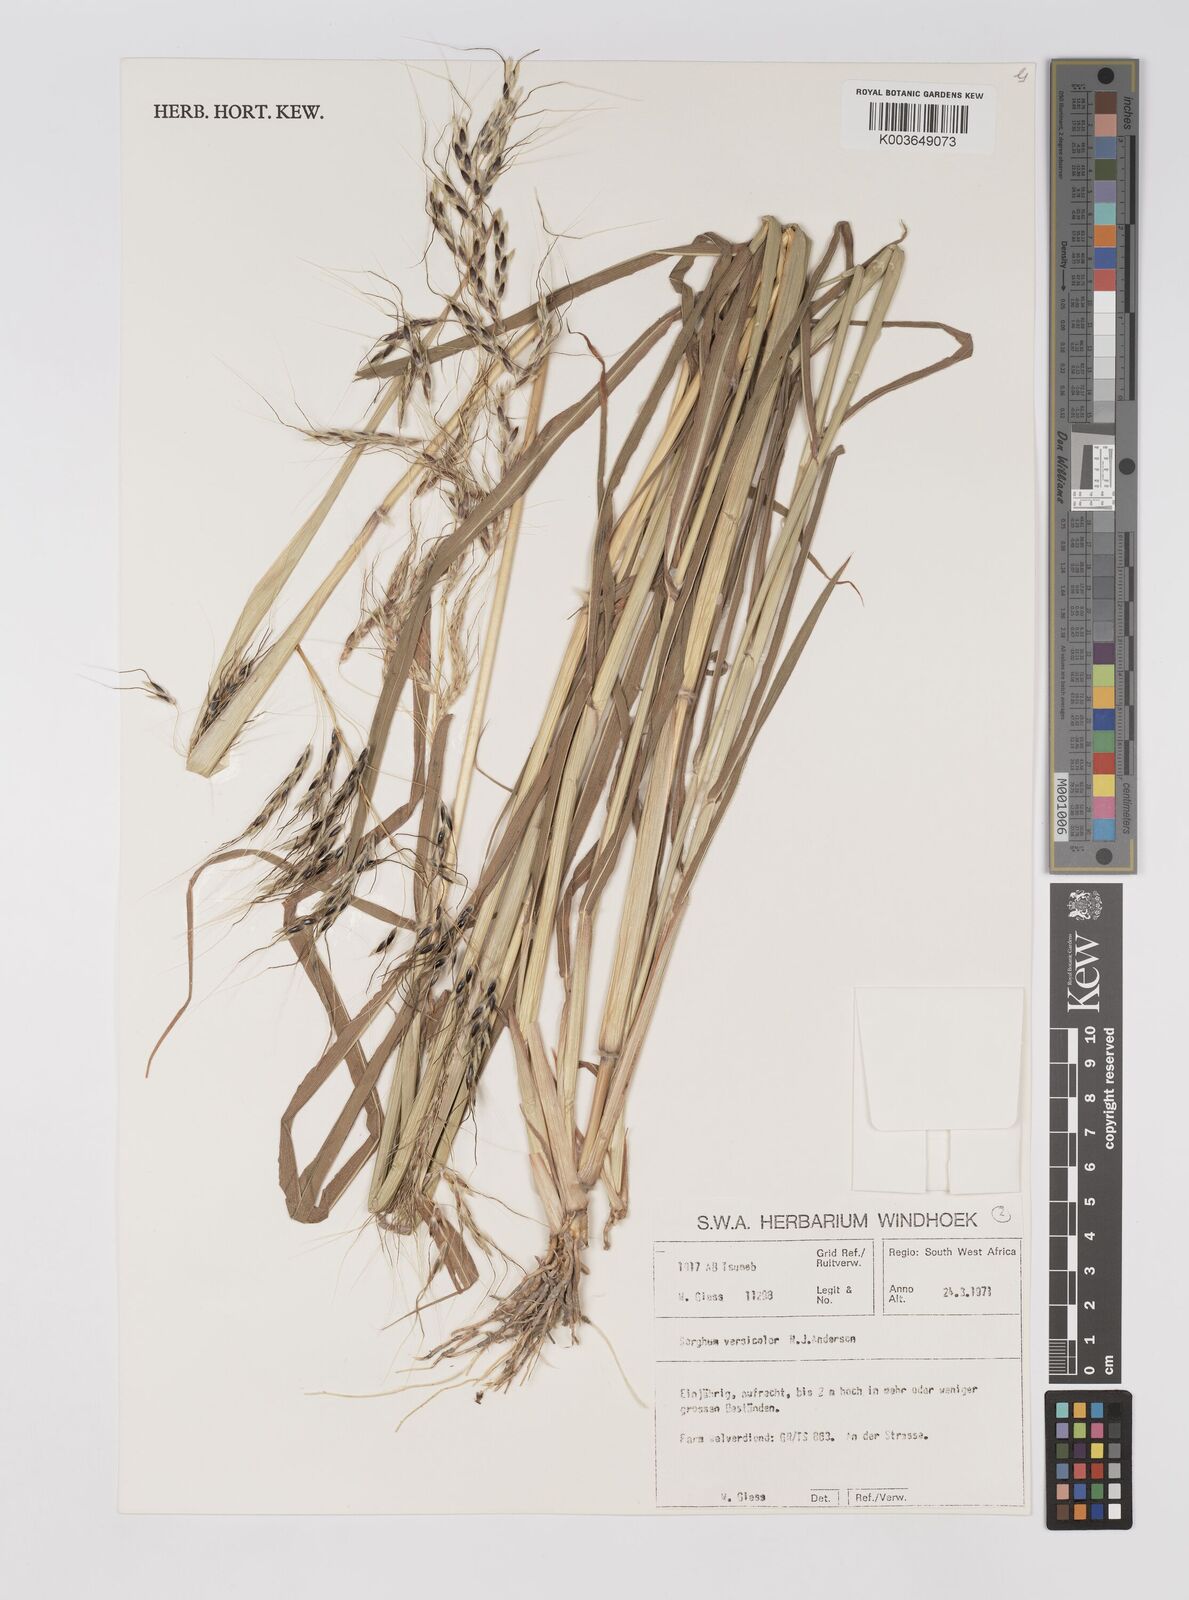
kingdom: Plantae
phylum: Tracheophyta
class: Liliopsida
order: Poales
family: Poaceae
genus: Sarga
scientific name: Sarga versicolor
